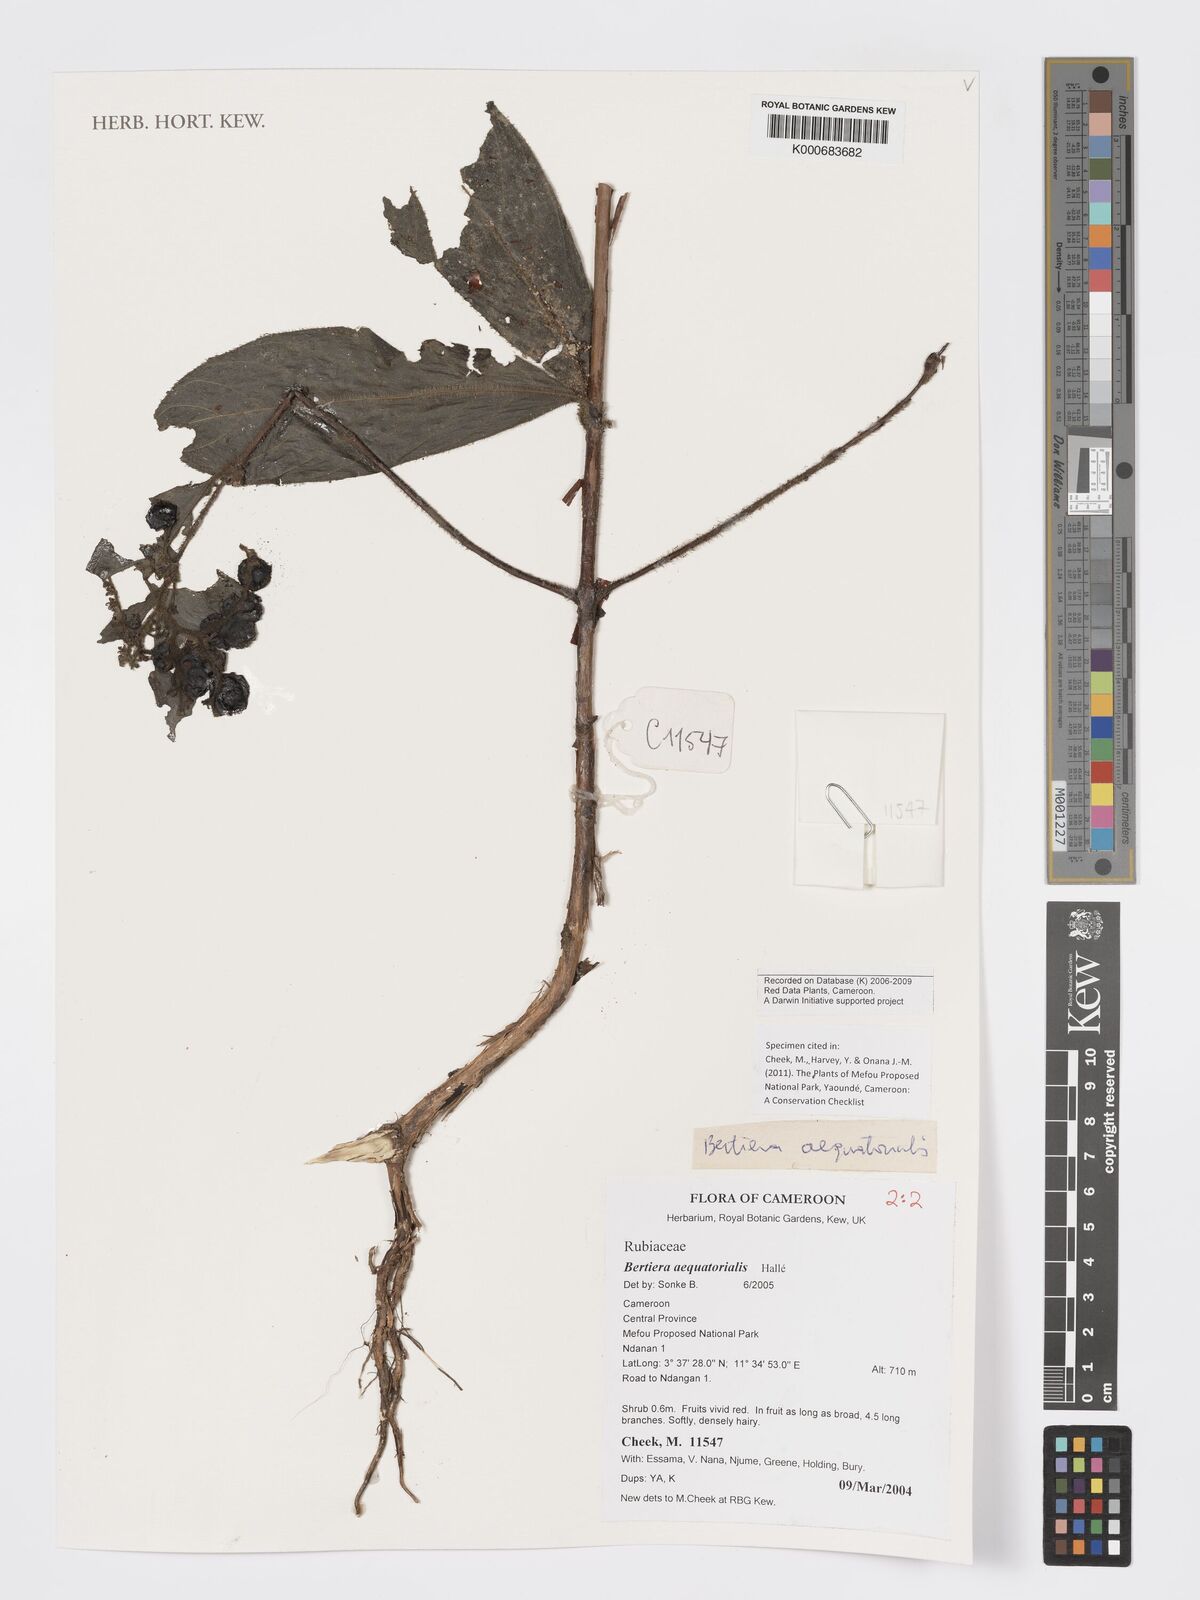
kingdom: Plantae
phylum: Tracheophyta
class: Magnoliopsida
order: Gentianales
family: Rubiaceae
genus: Bertiera
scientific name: Bertiera
